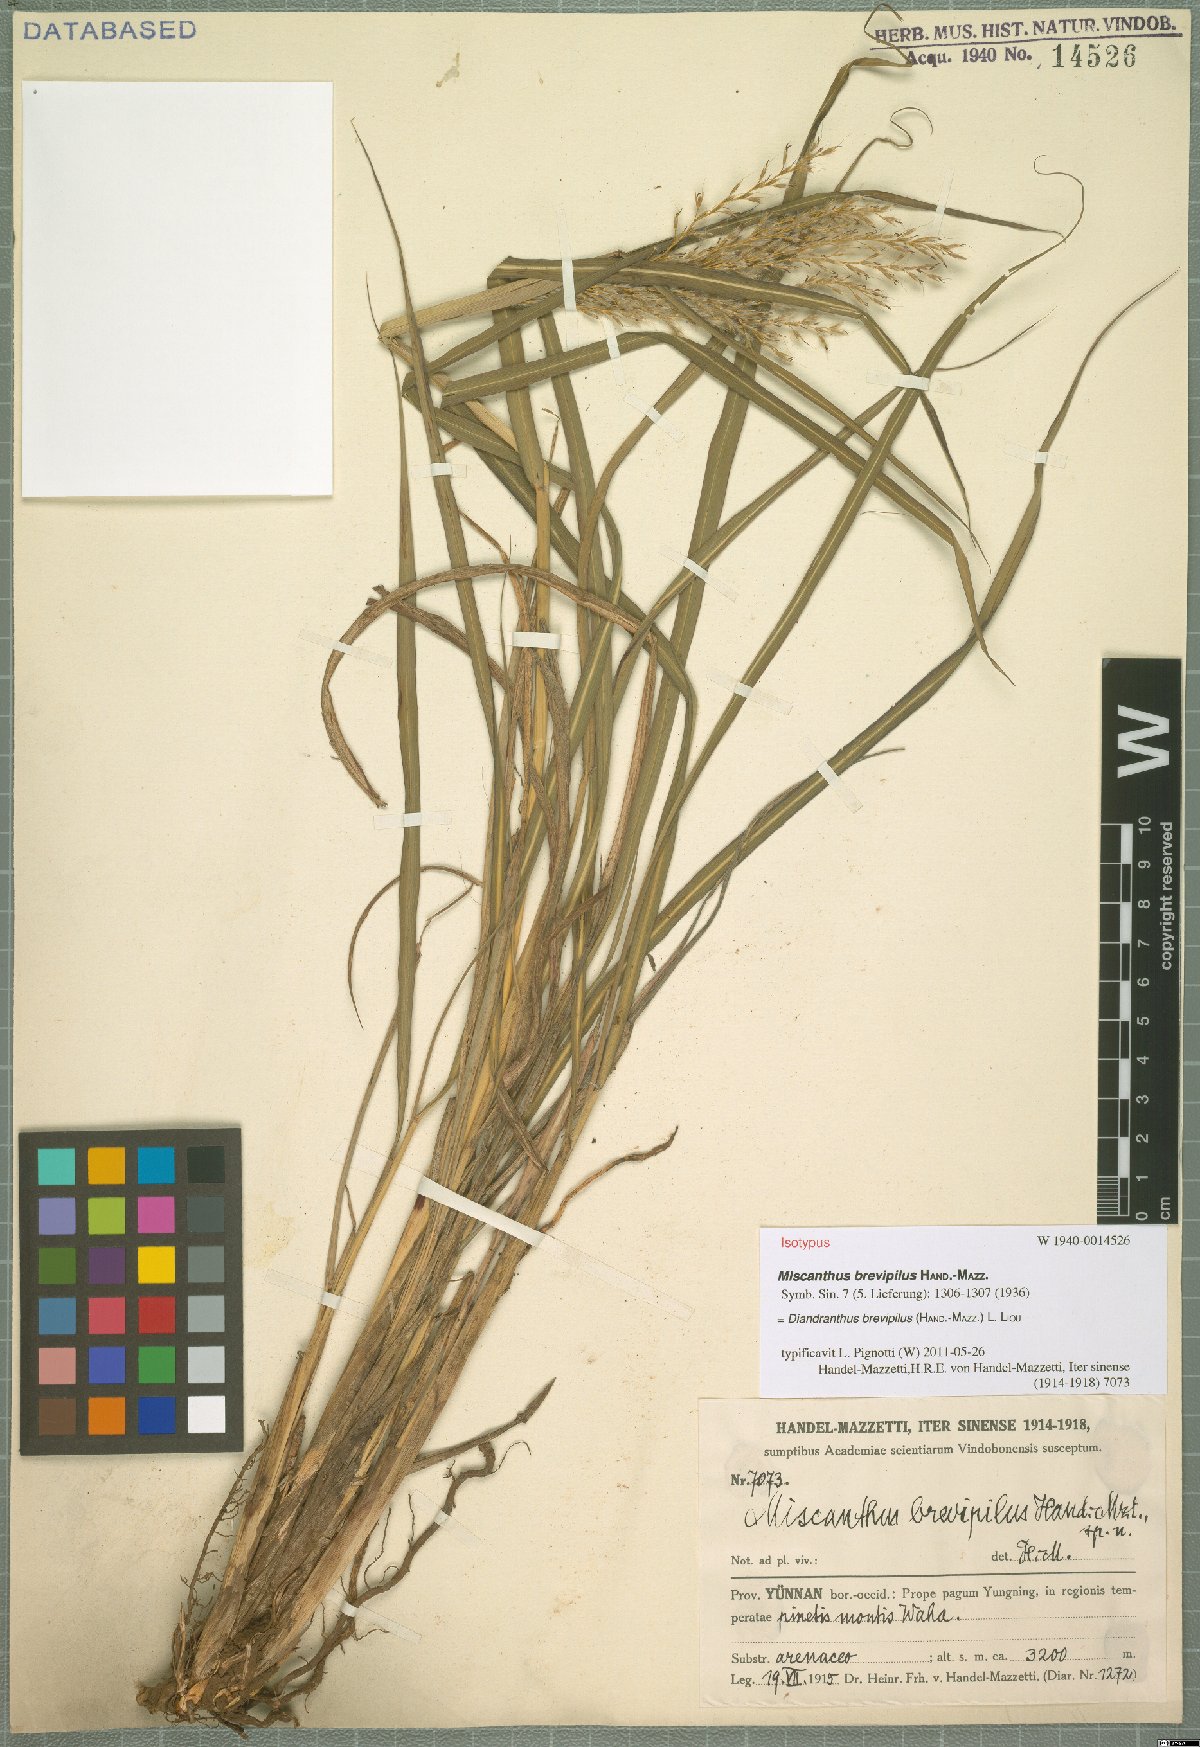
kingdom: Plantae
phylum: Tracheophyta
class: Liliopsida
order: Poales
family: Poaceae
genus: Miscanthus
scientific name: Miscanthus nudipes
